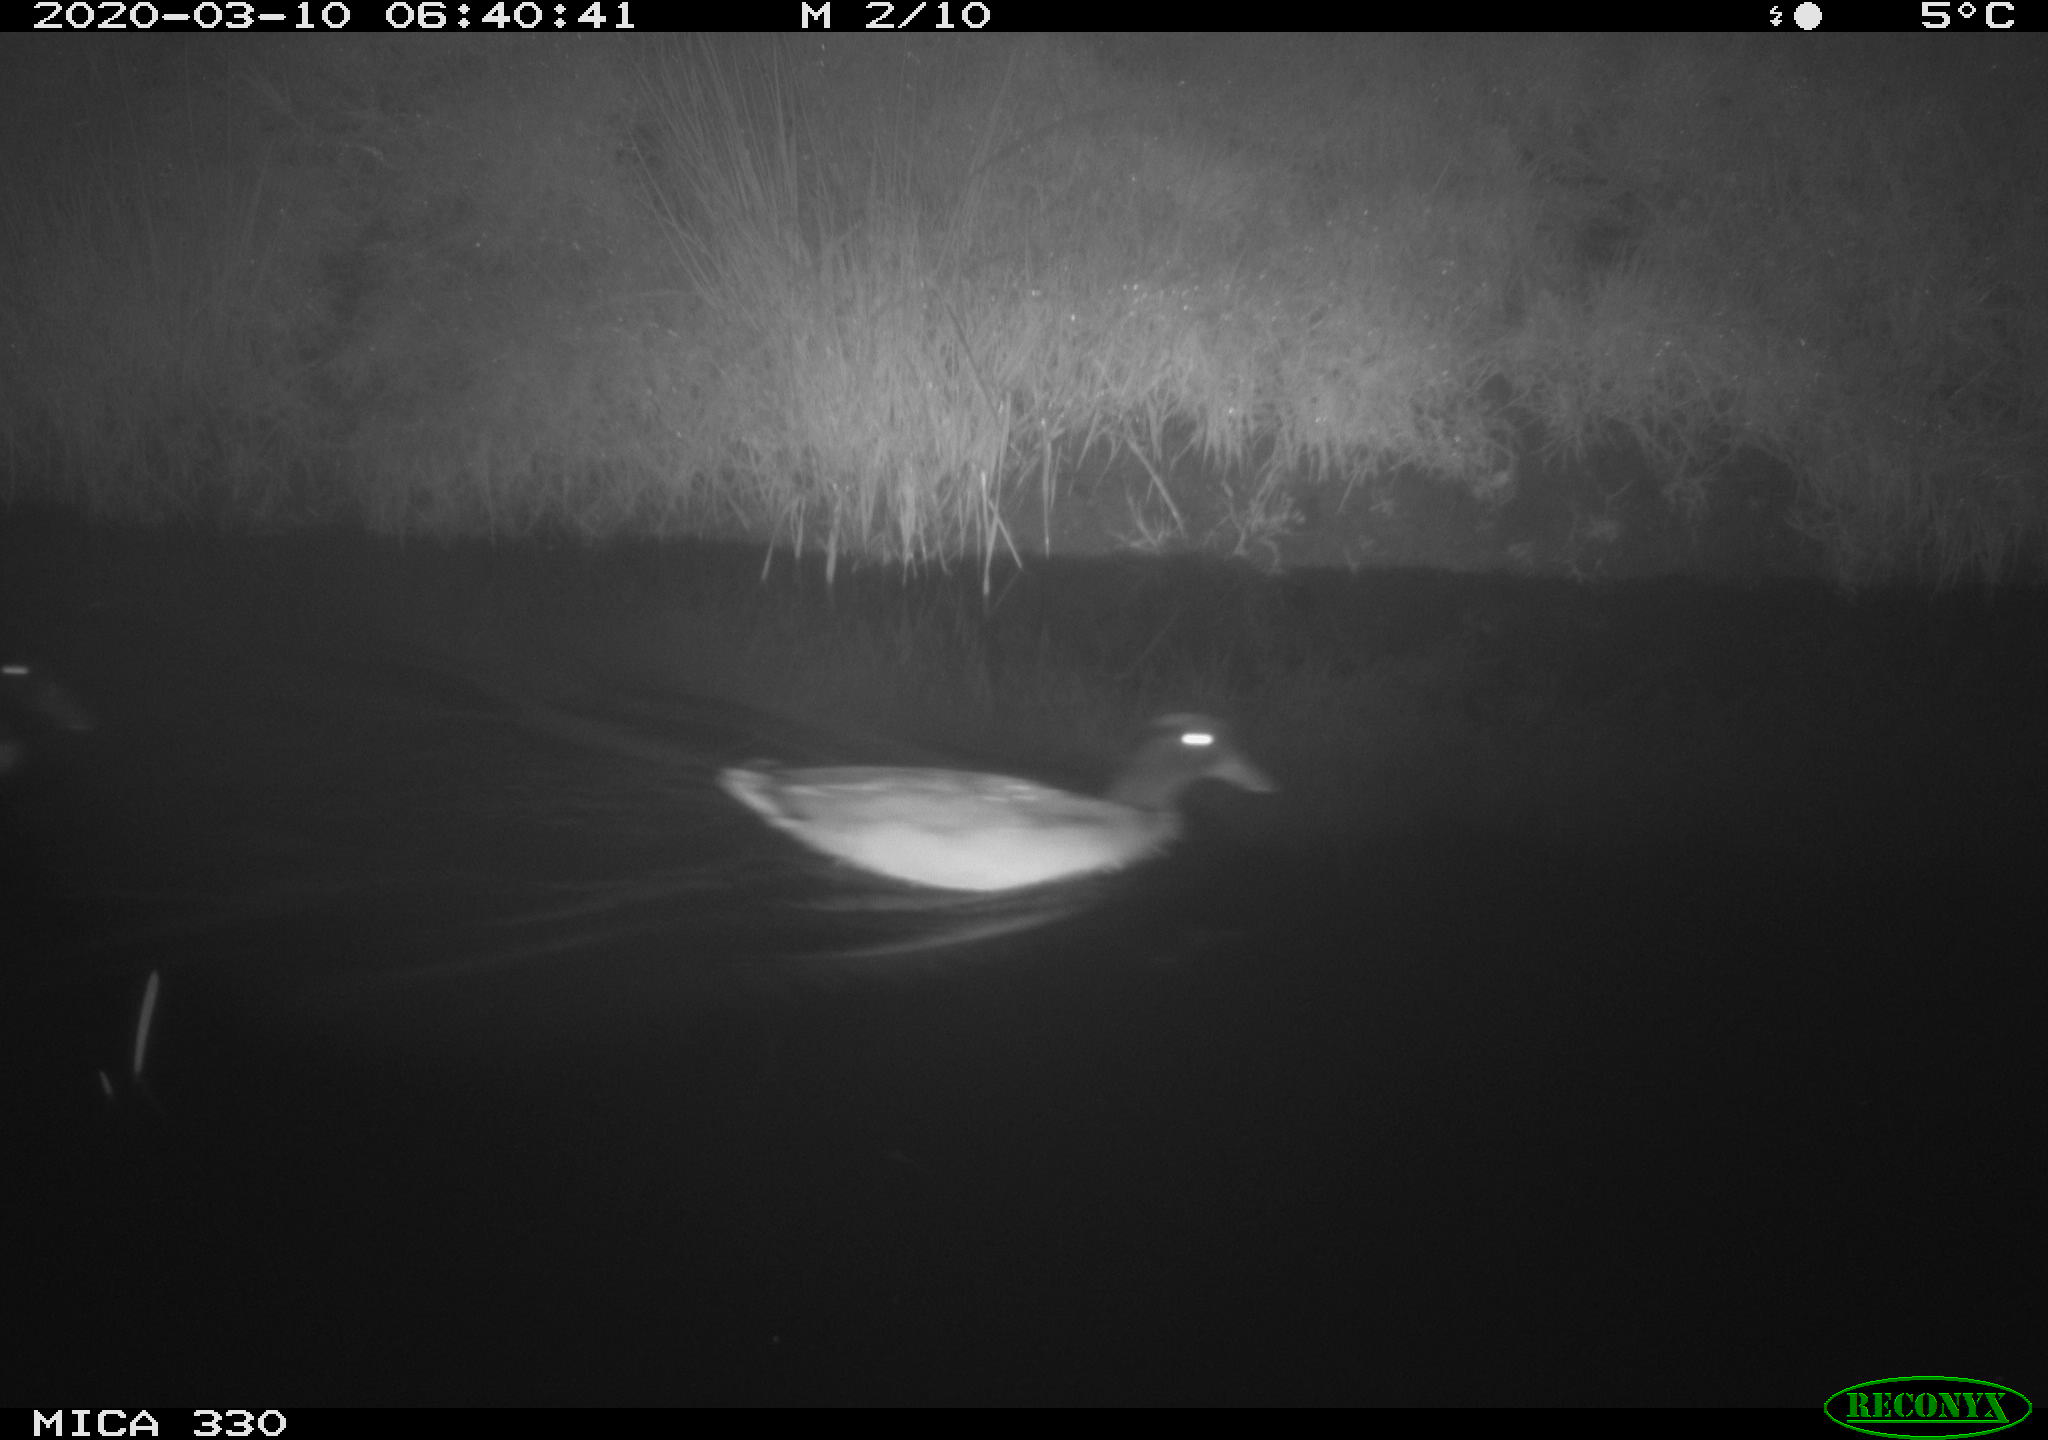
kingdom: Animalia
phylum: Chordata
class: Aves
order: Anseriformes
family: Anatidae
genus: Anas
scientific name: Anas platyrhynchos
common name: Mallard
